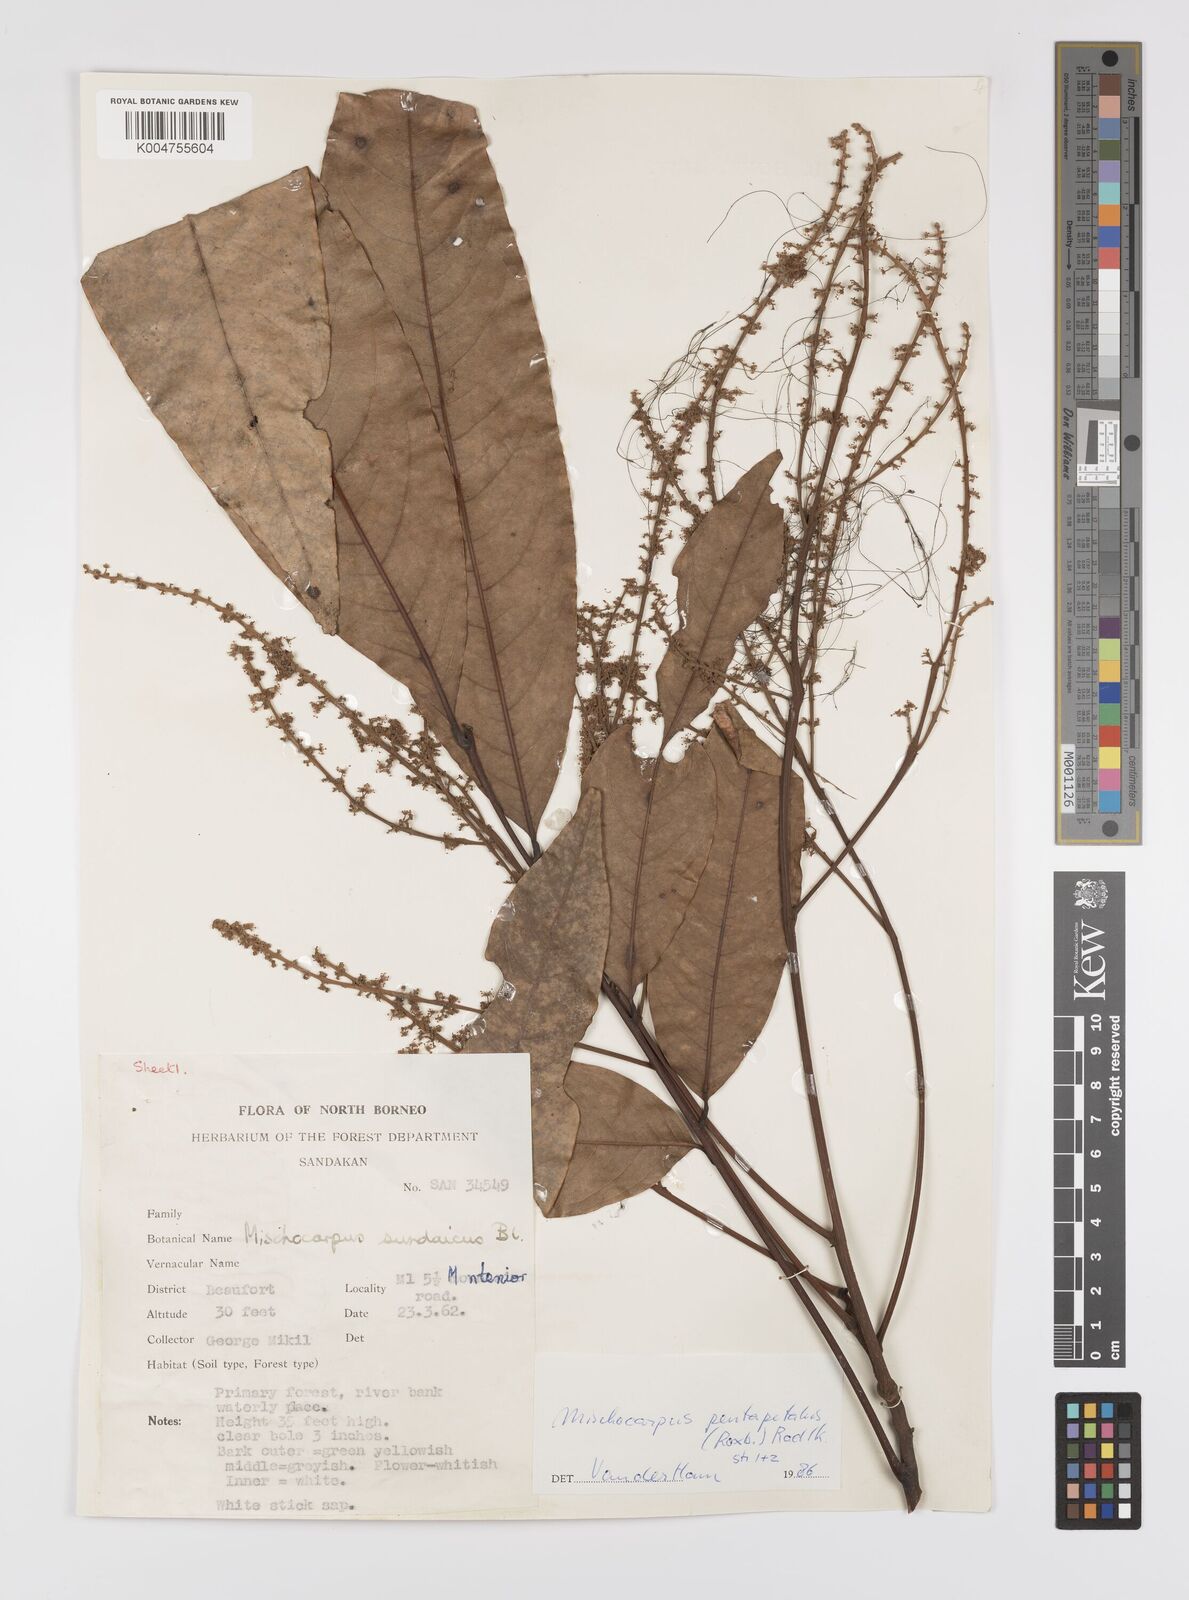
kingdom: Plantae
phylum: Tracheophyta
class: Magnoliopsida
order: Sapindales
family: Sapindaceae
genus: Mischocarpus
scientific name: Mischocarpus pentapetalus
